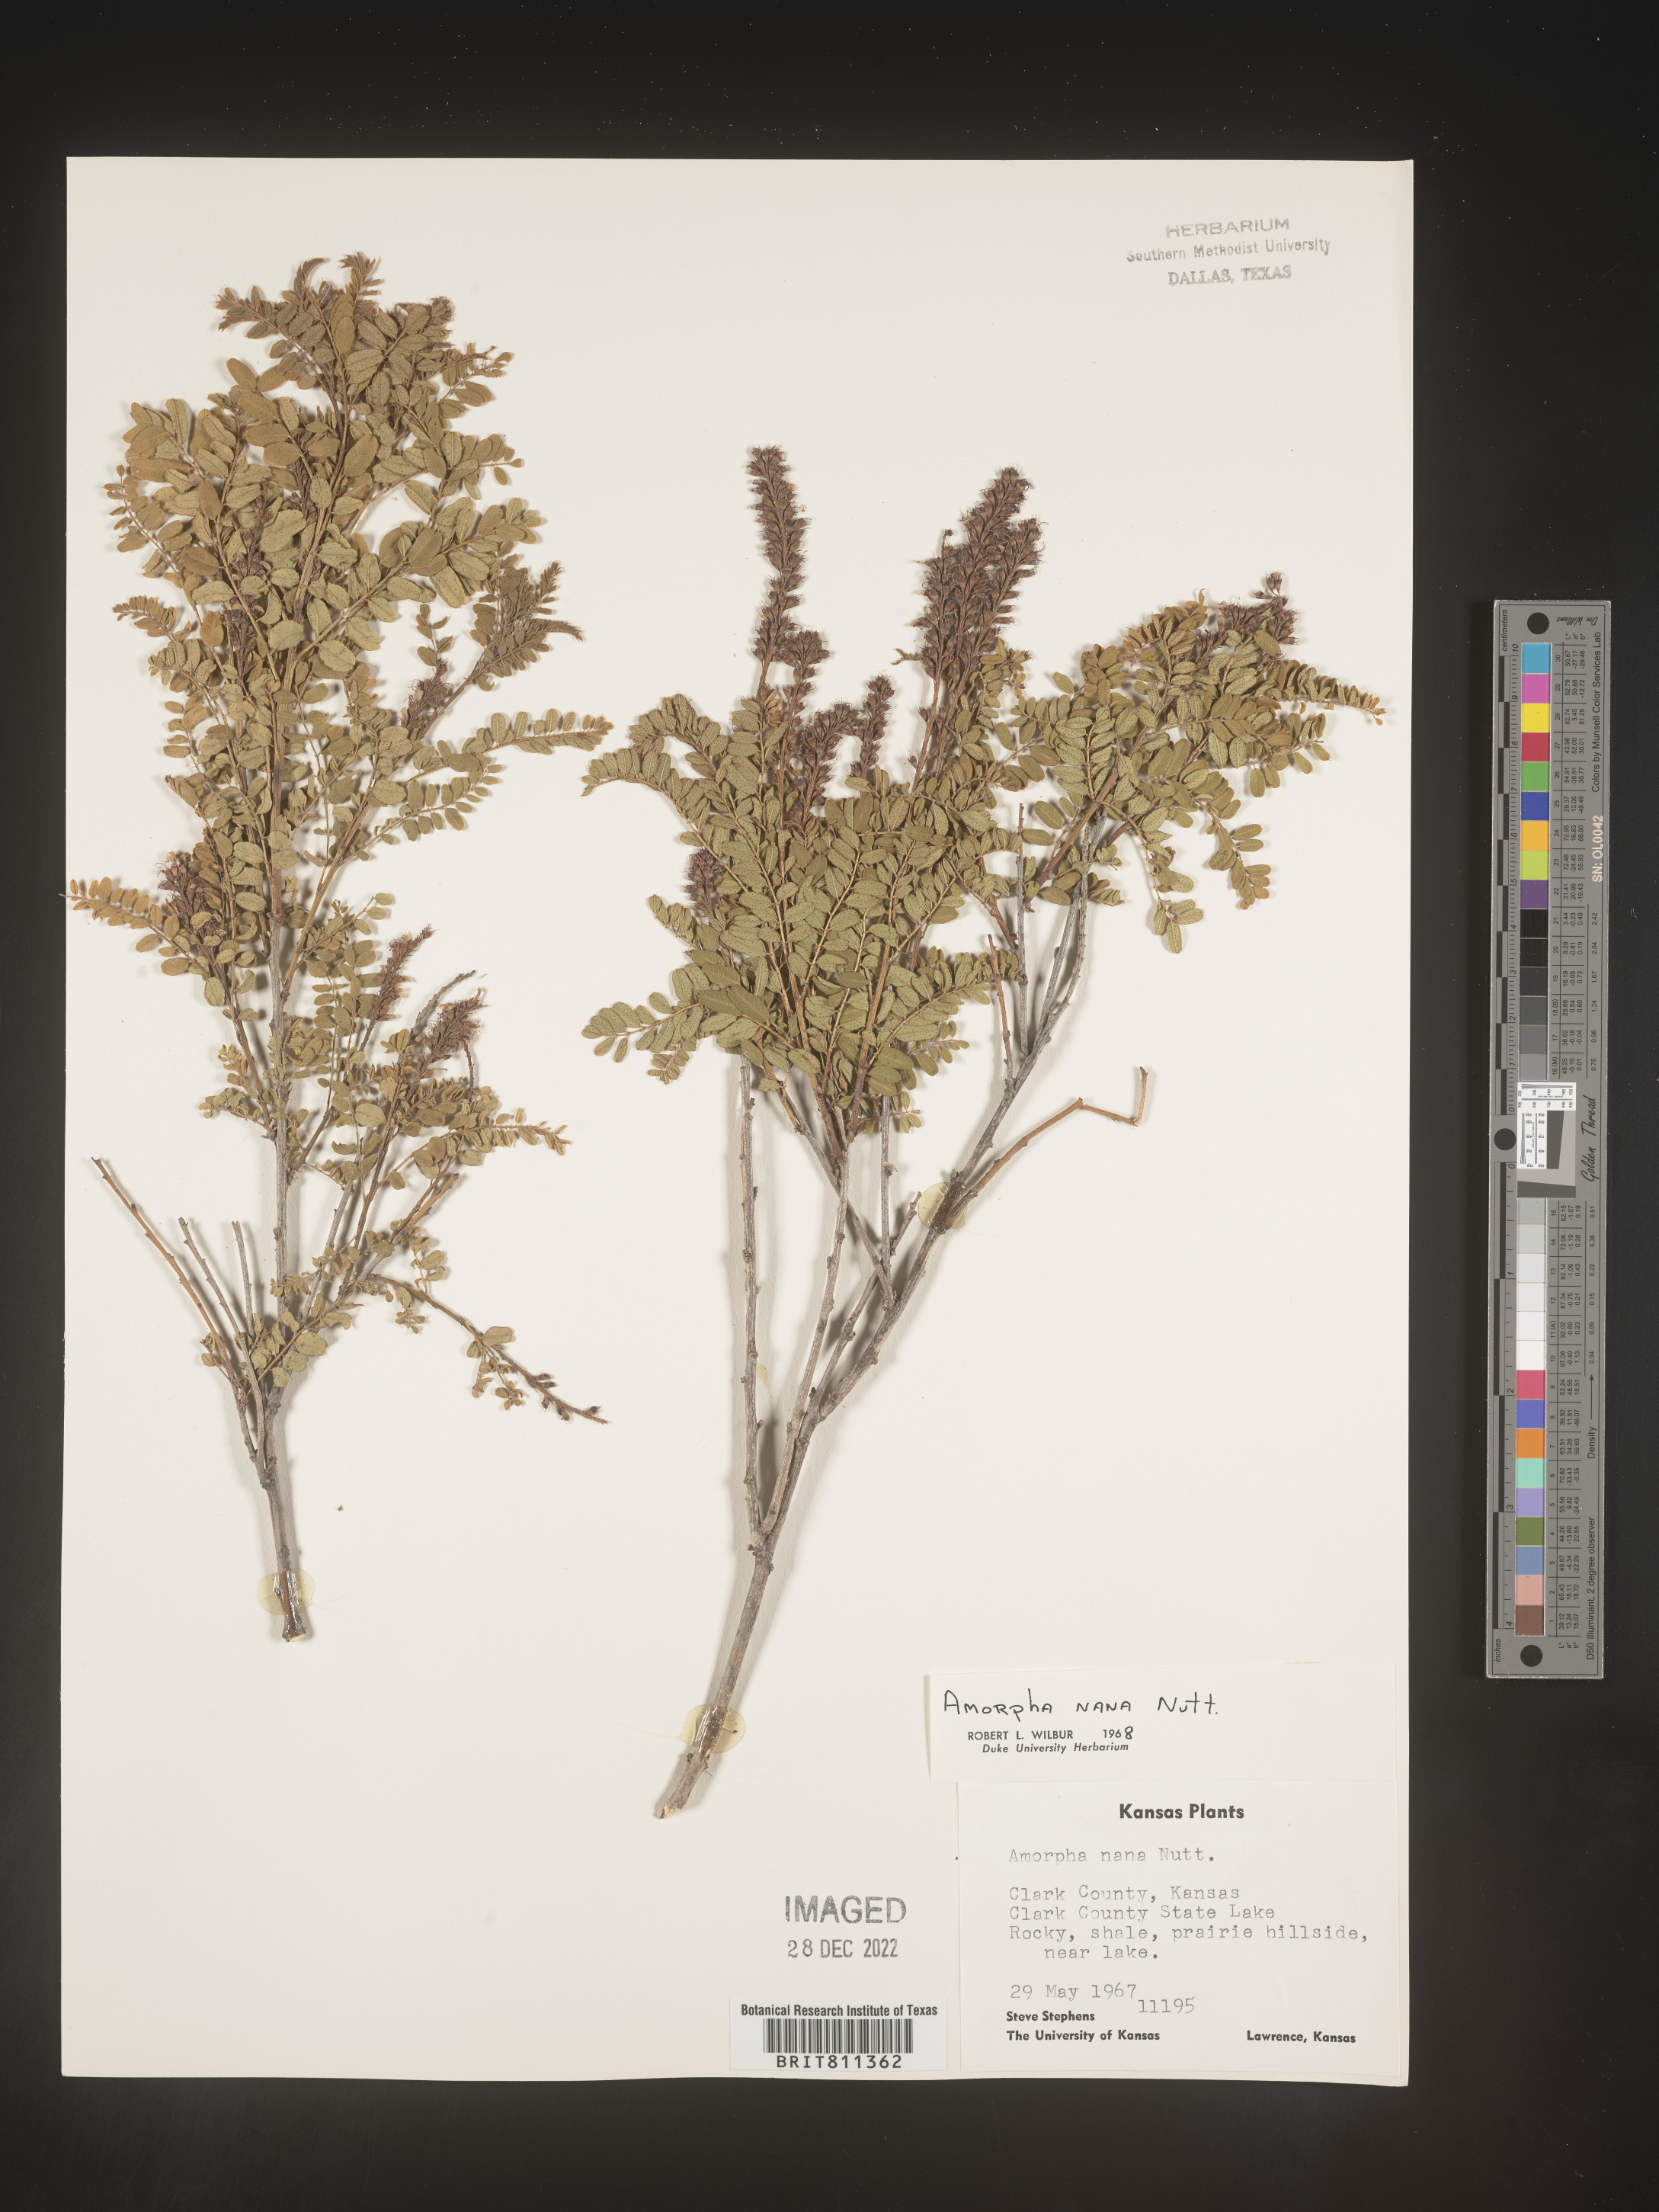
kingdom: Plantae
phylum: Tracheophyta
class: Magnoliopsida
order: Fabales
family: Fabaceae
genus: Amorpha
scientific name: Amorpha nana
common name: Fragrant false indigo
